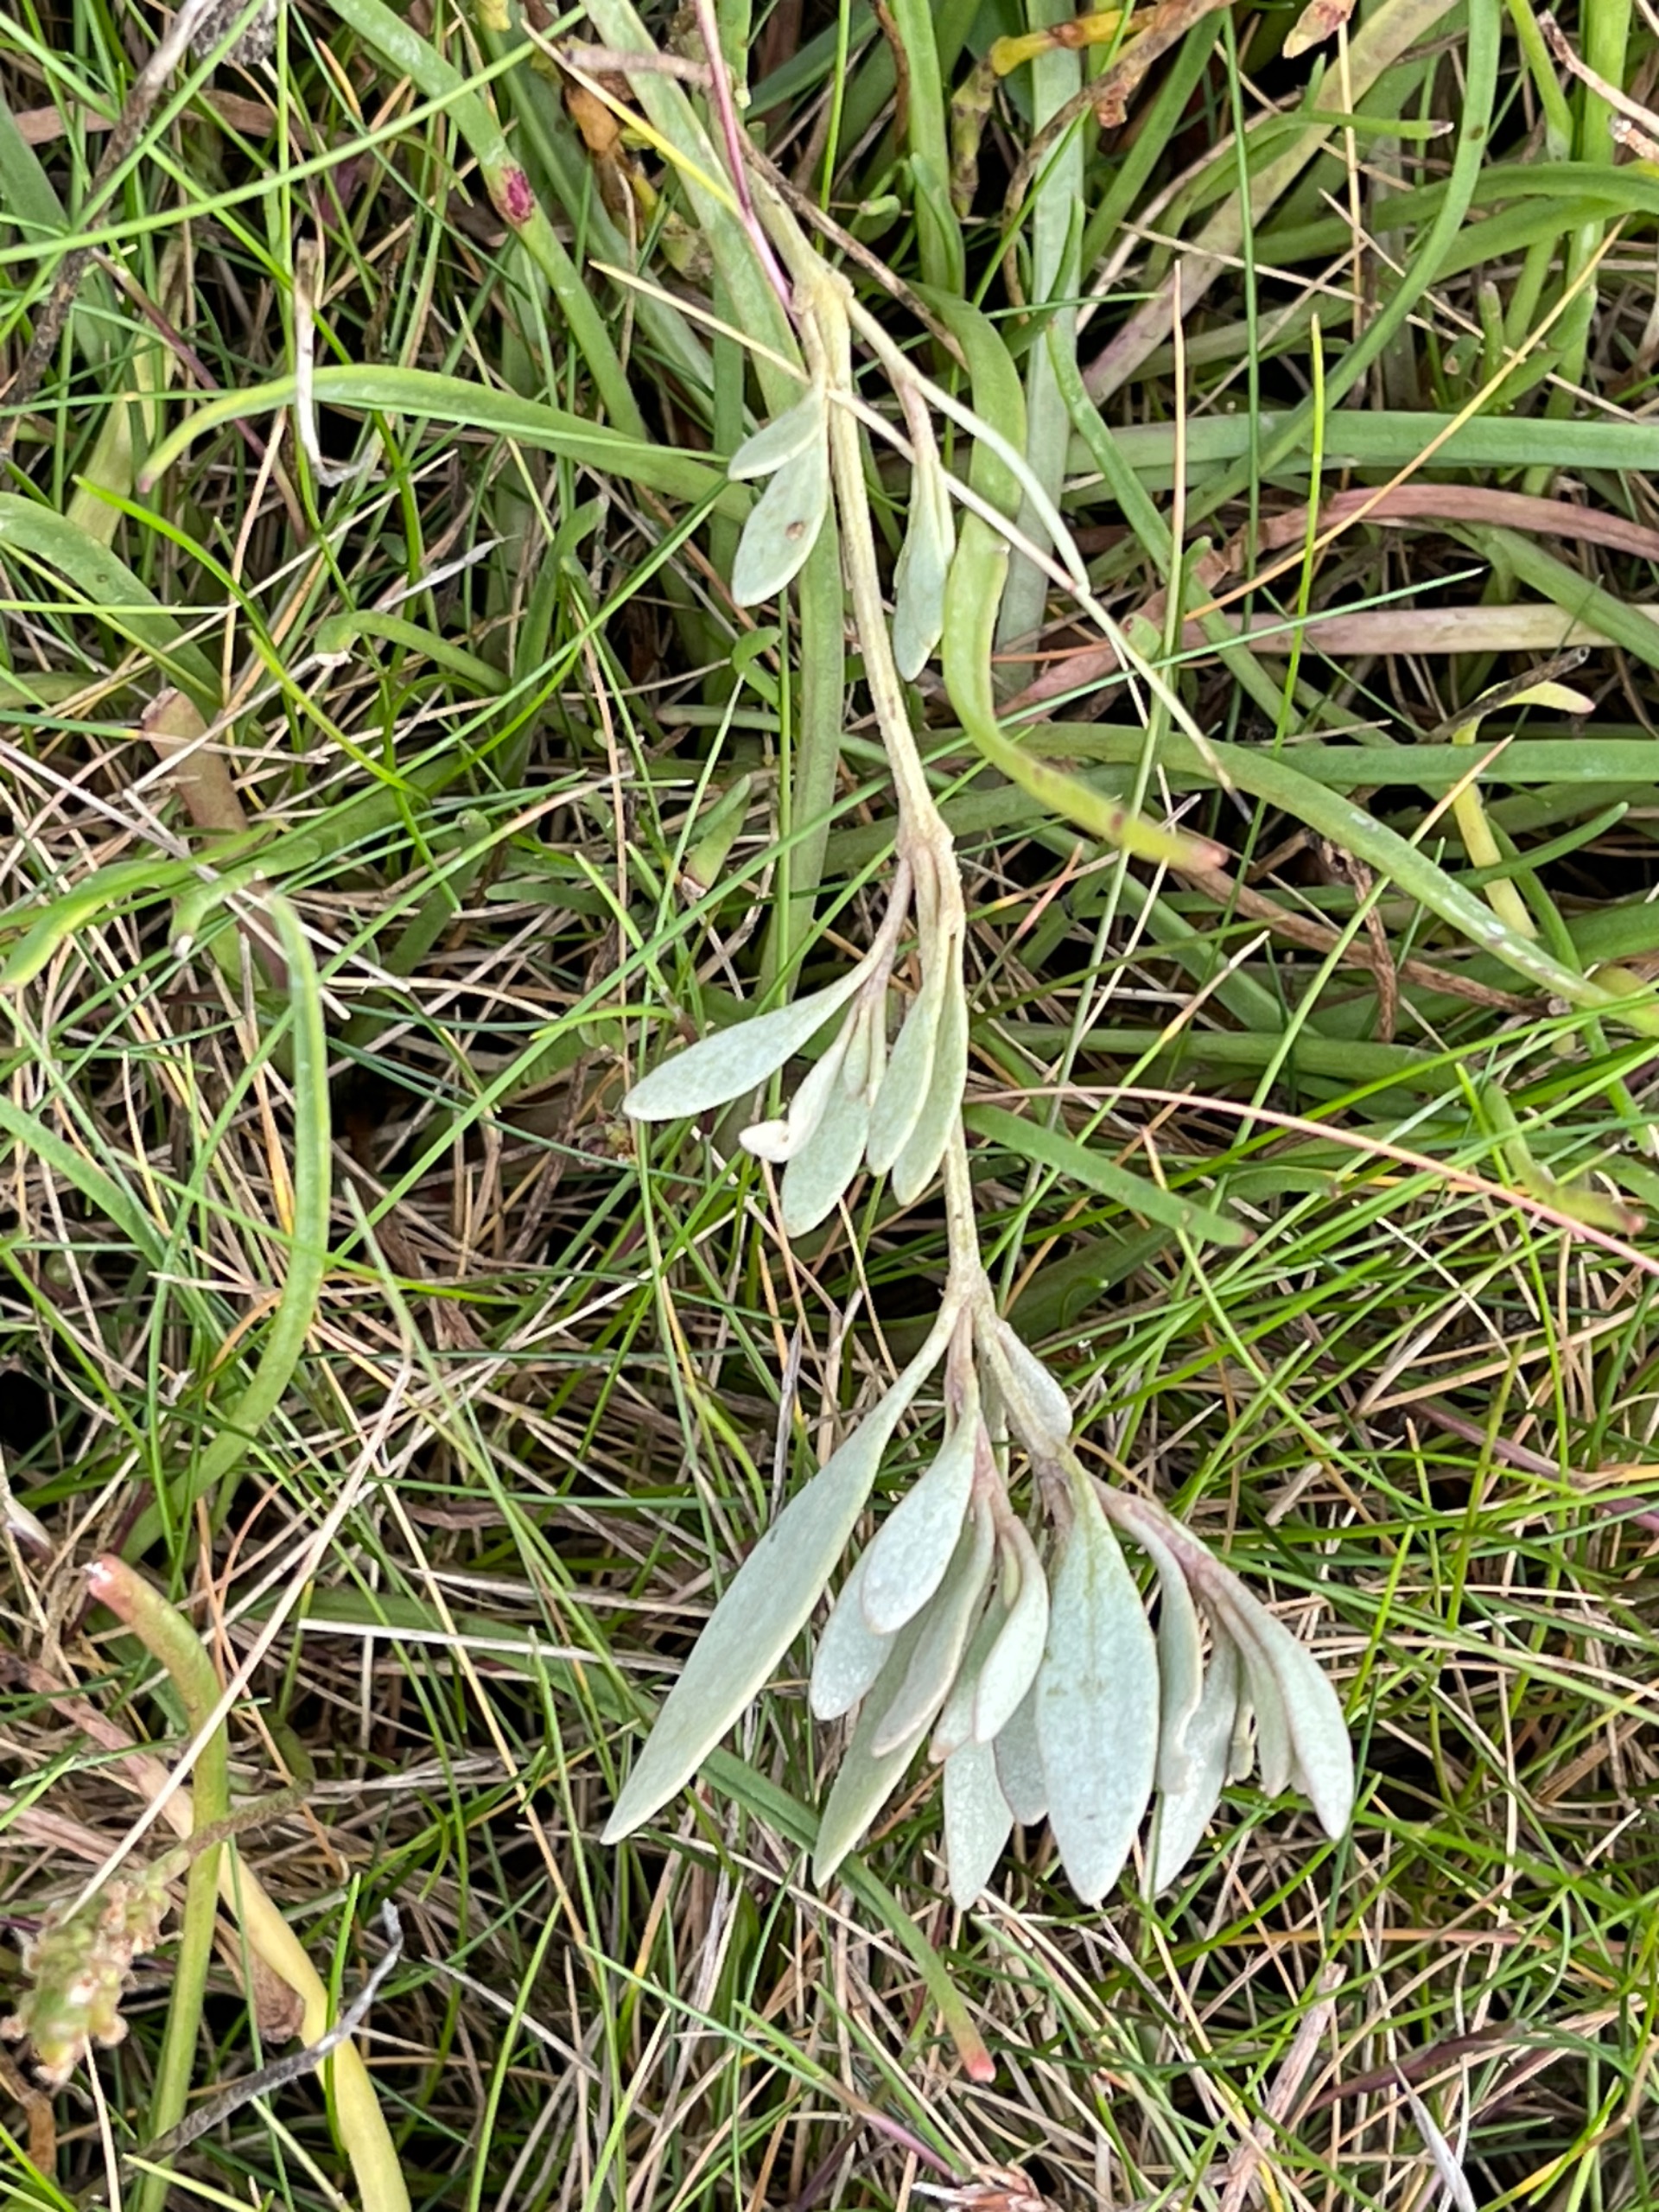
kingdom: Plantae
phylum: Tracheophyta
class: Magnoliopsida
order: Caryophyllales
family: Amaranthaceae
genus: Halimione
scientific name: Halimione portulacoides
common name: Stilkløs kilebæger
